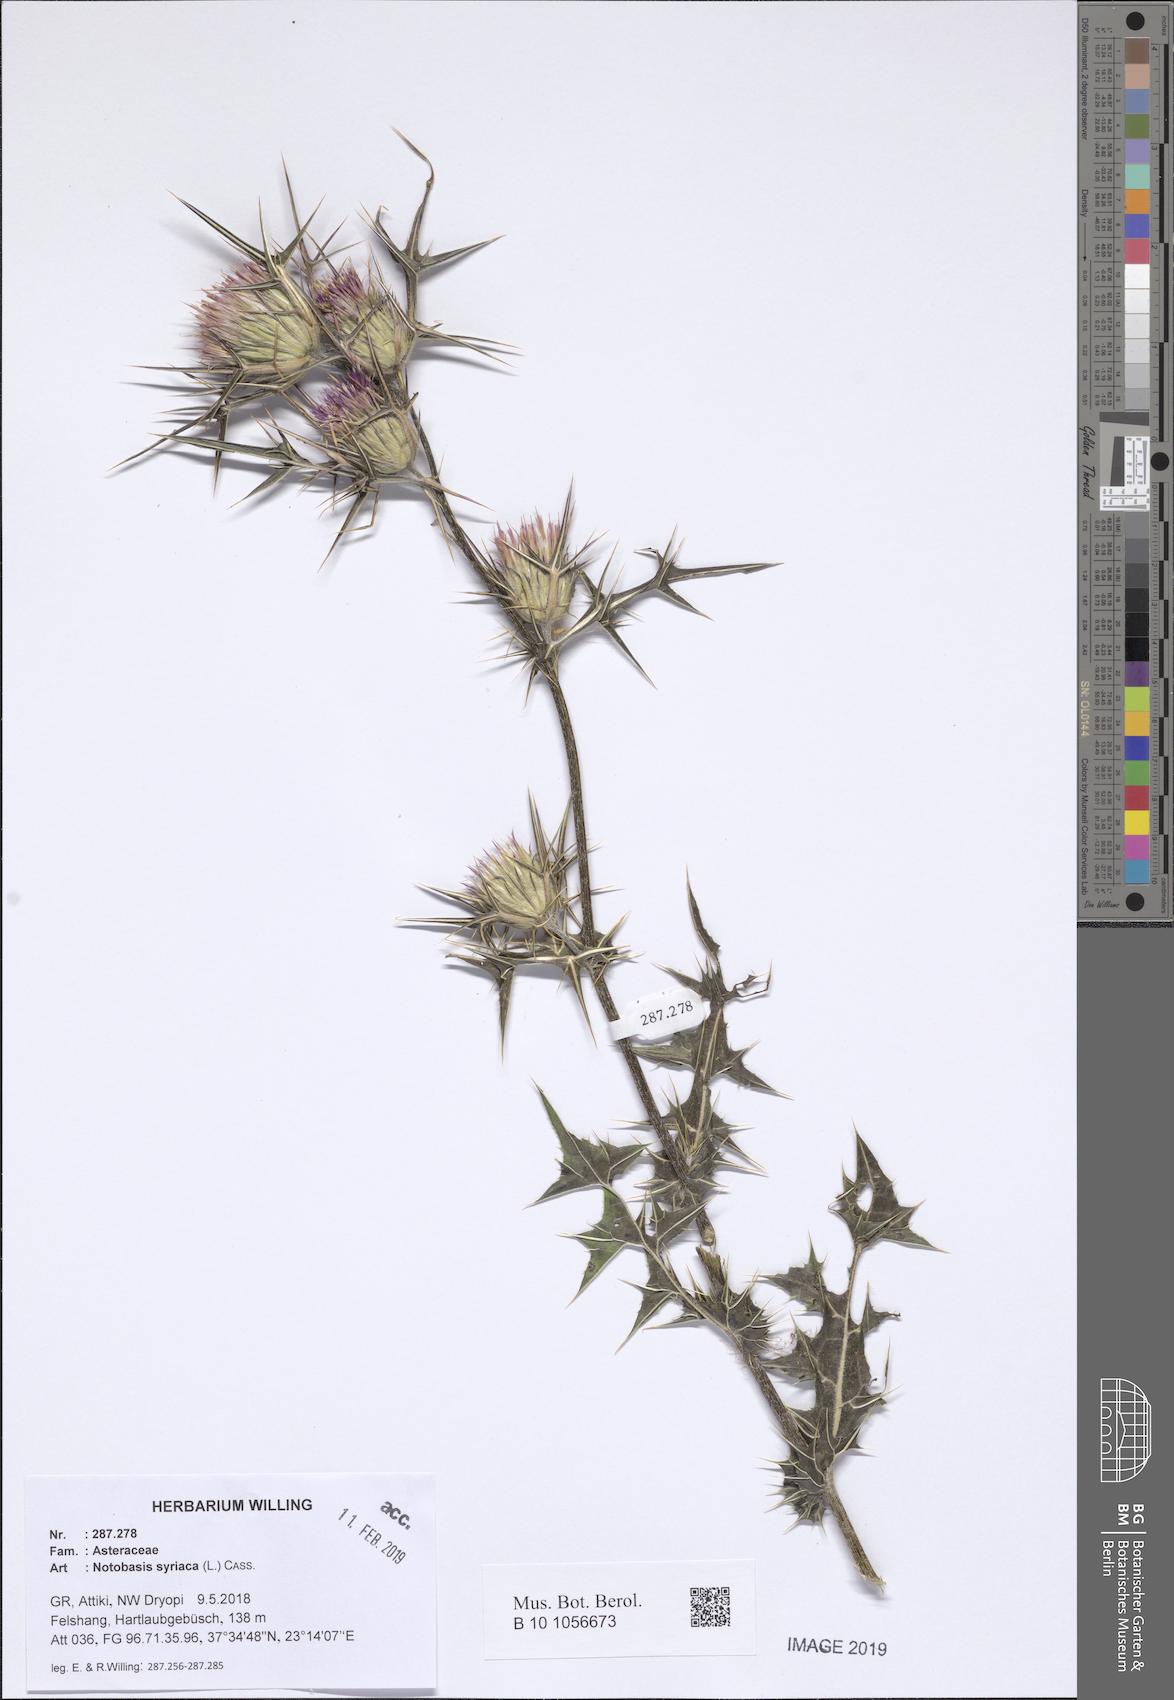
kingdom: Plantae
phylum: Tracheophyta
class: Magnoliopsida
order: Asterales
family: Asteraceae
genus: Notobasis
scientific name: Notobasis syriaca
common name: Syrian thistle
